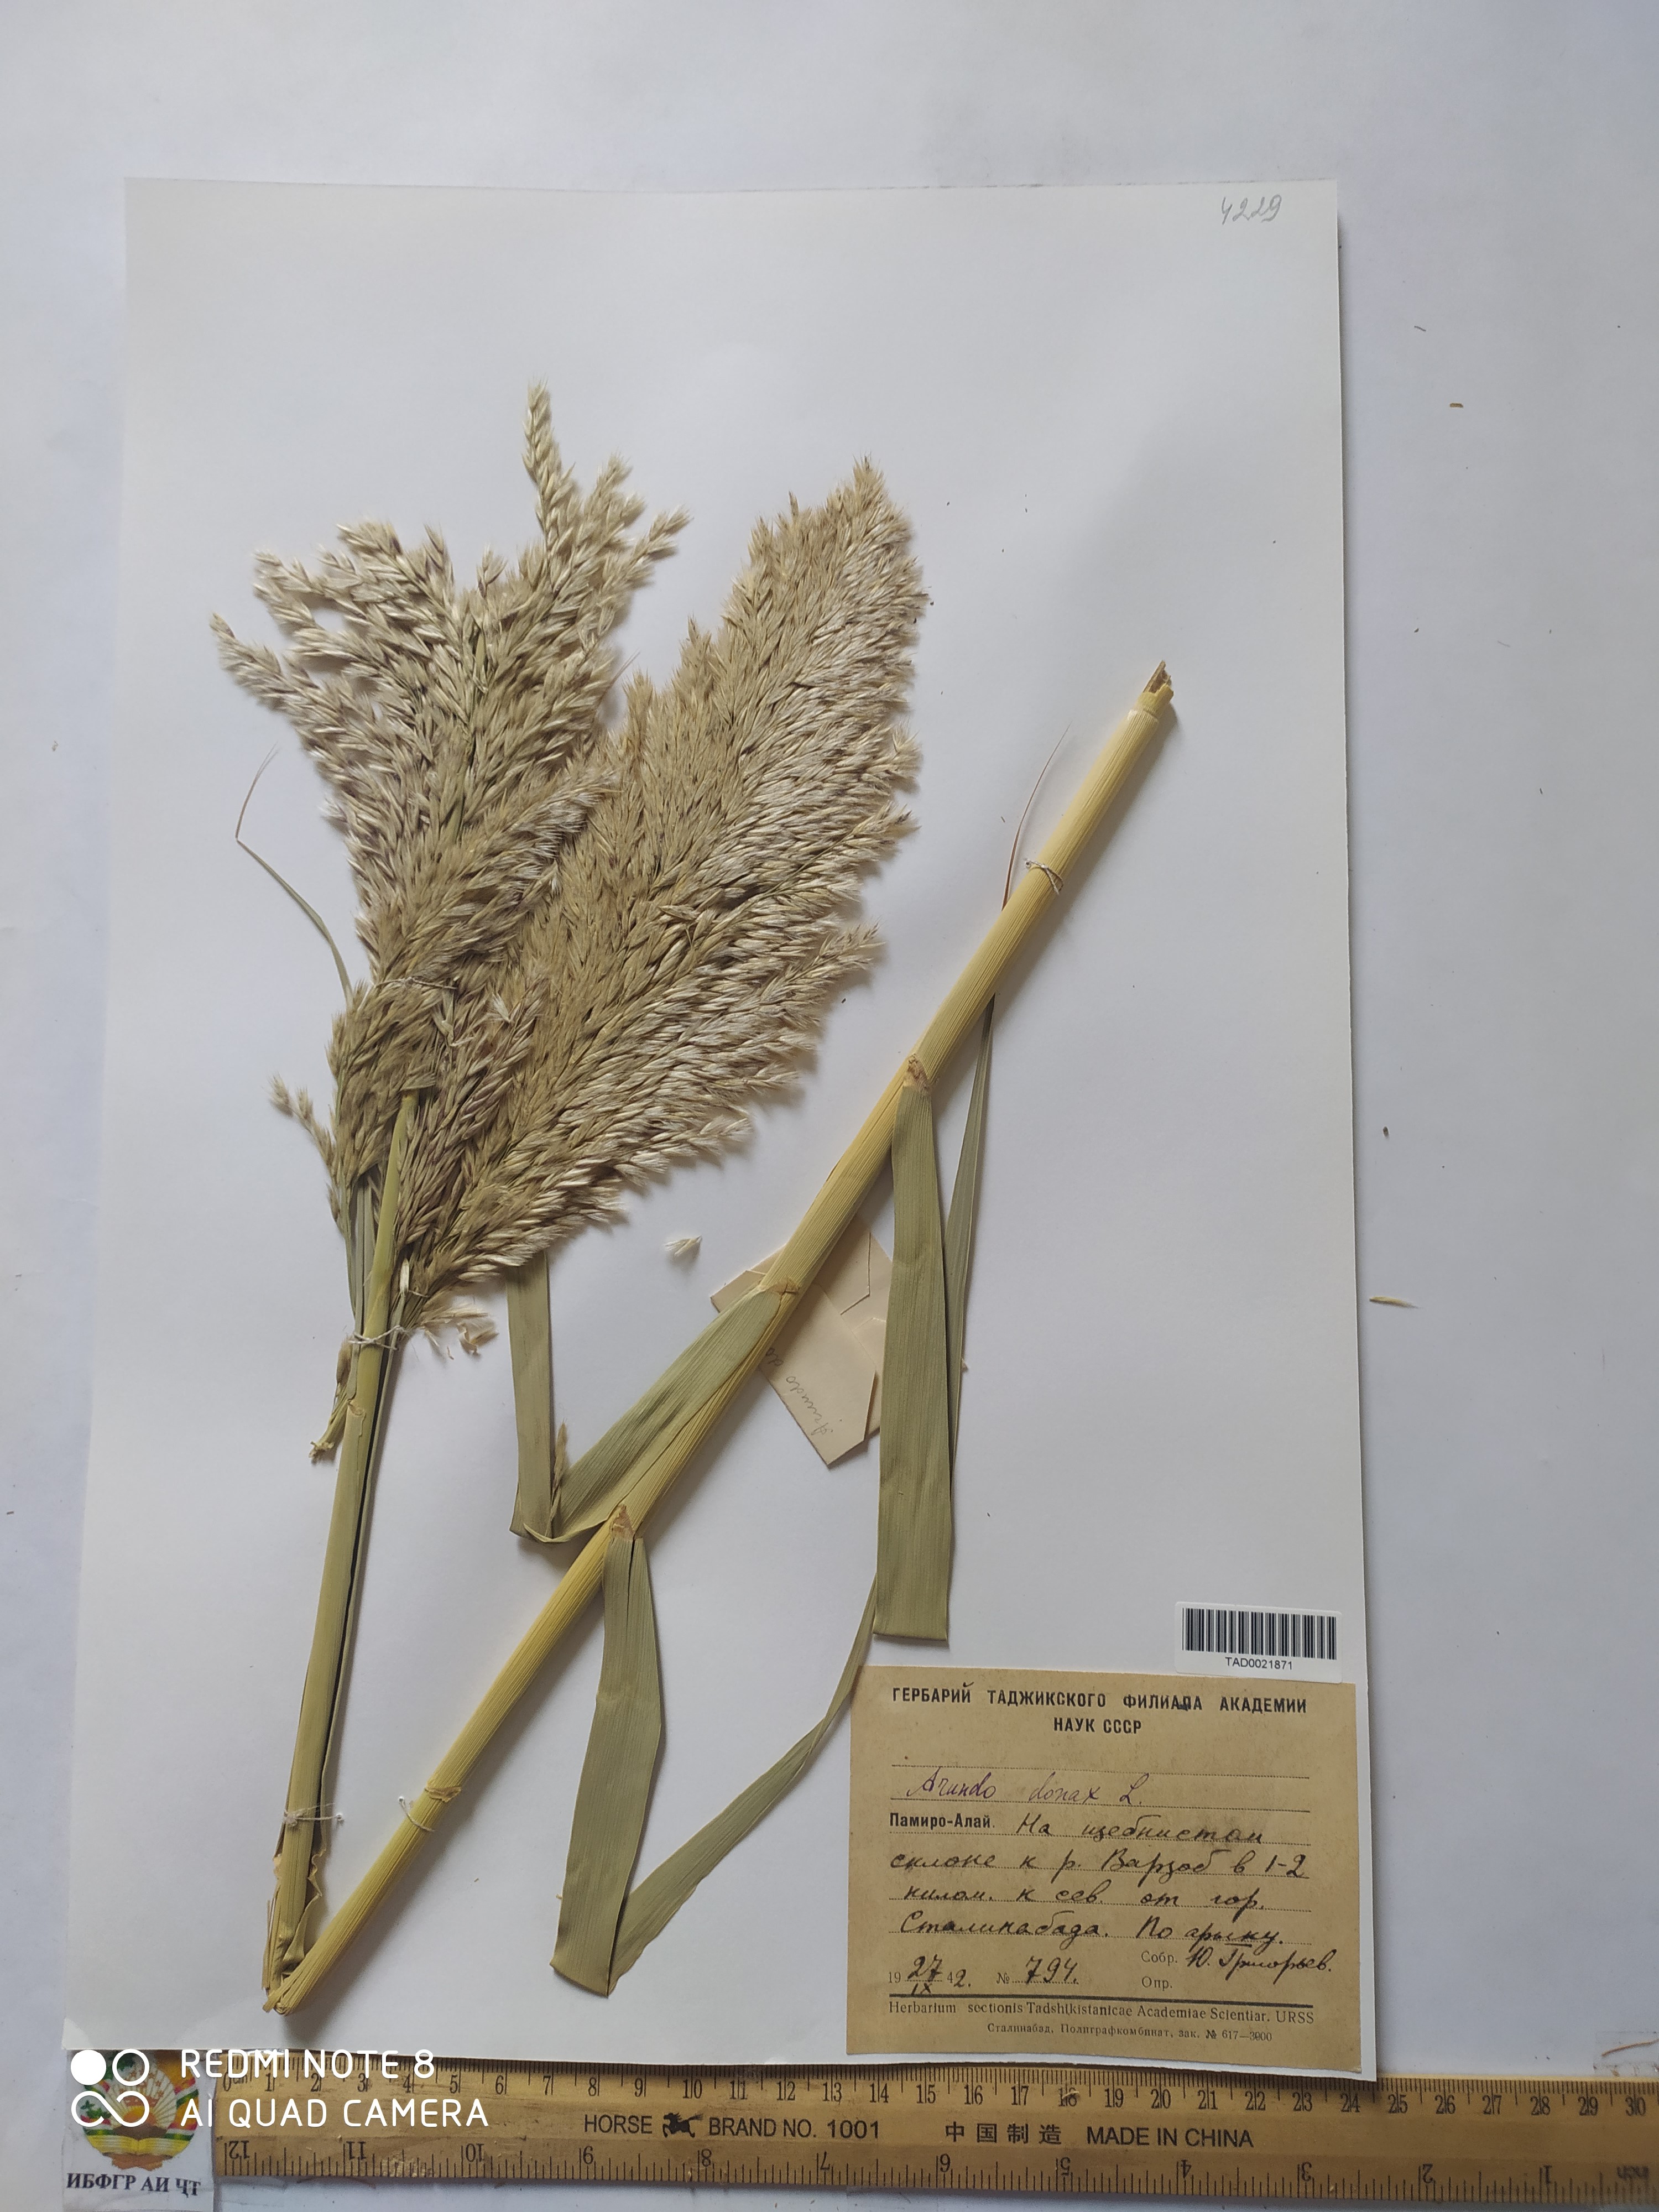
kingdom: Plantae
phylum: Tracheophyta
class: Liliopsida
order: Poales
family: Poaceae
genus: Arundo
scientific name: Arundo donax
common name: Giant reed
